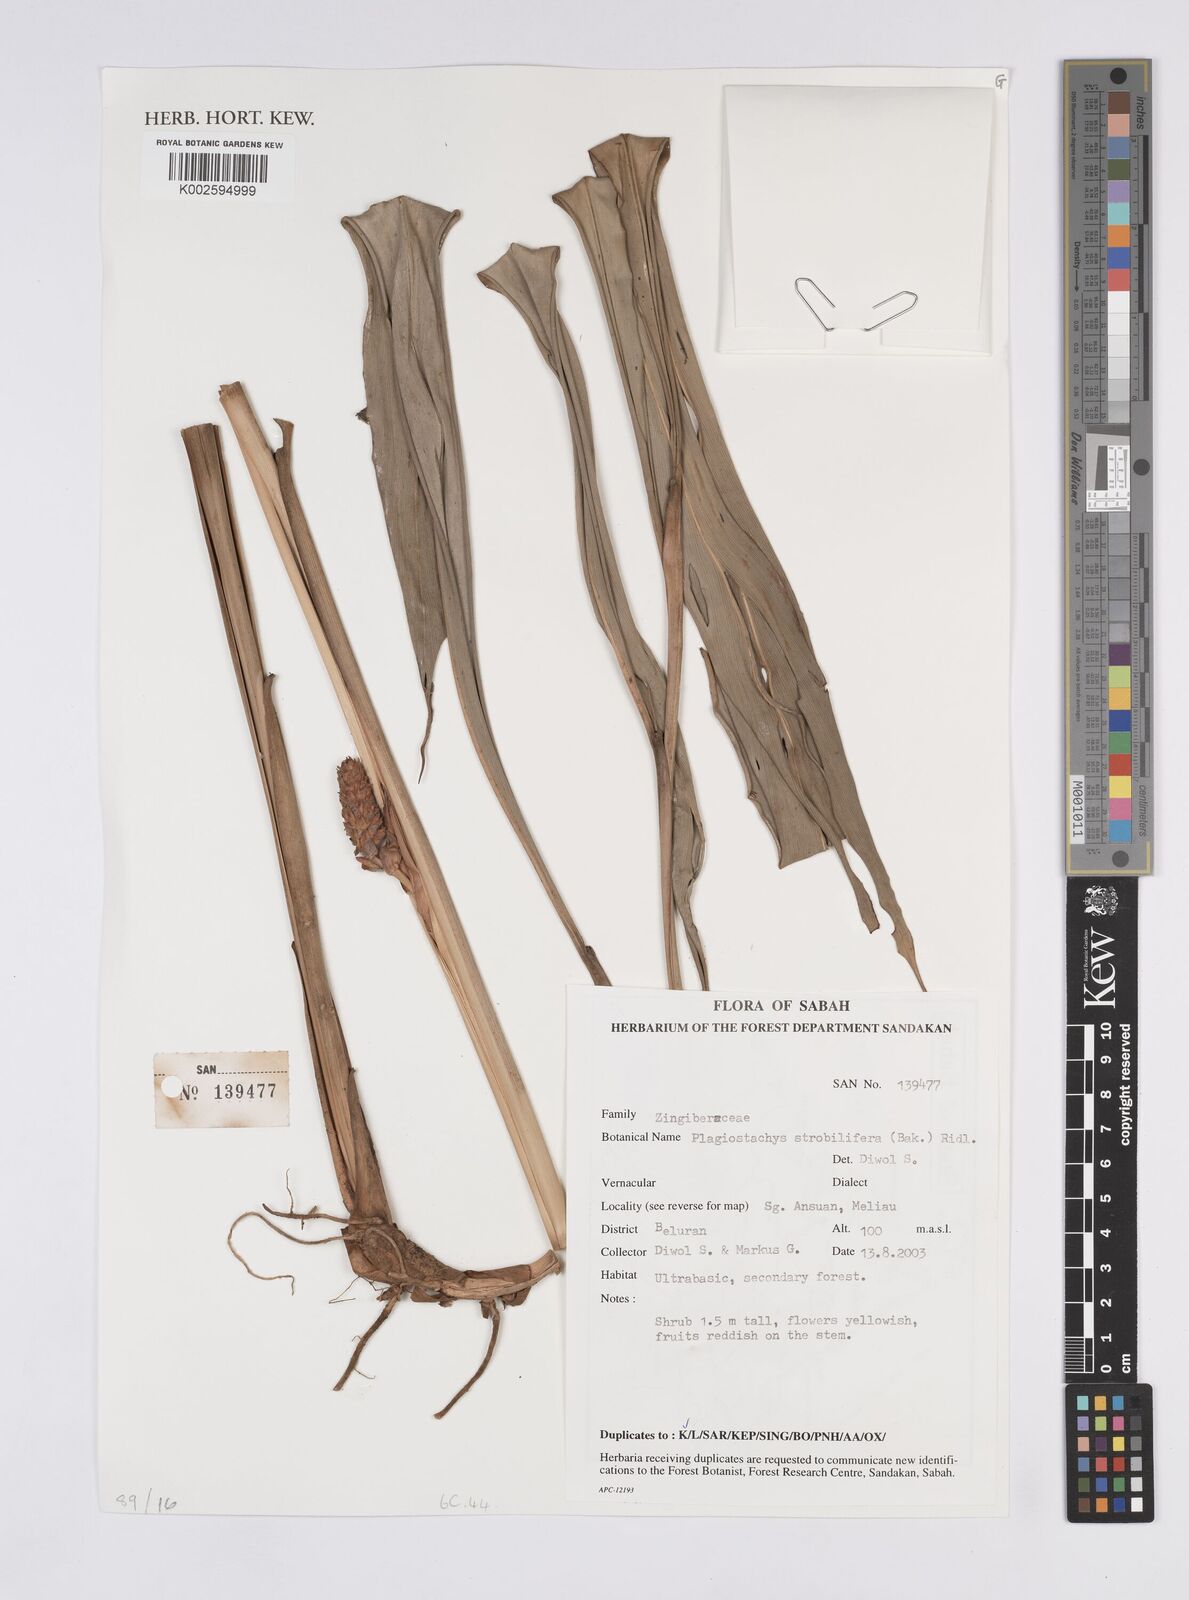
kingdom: Plantae
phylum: Tracheophyta
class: Liliopsida
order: Zingiberales
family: Zingiberaceae
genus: Plagiostachys
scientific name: Plagiostachys strobilifera
